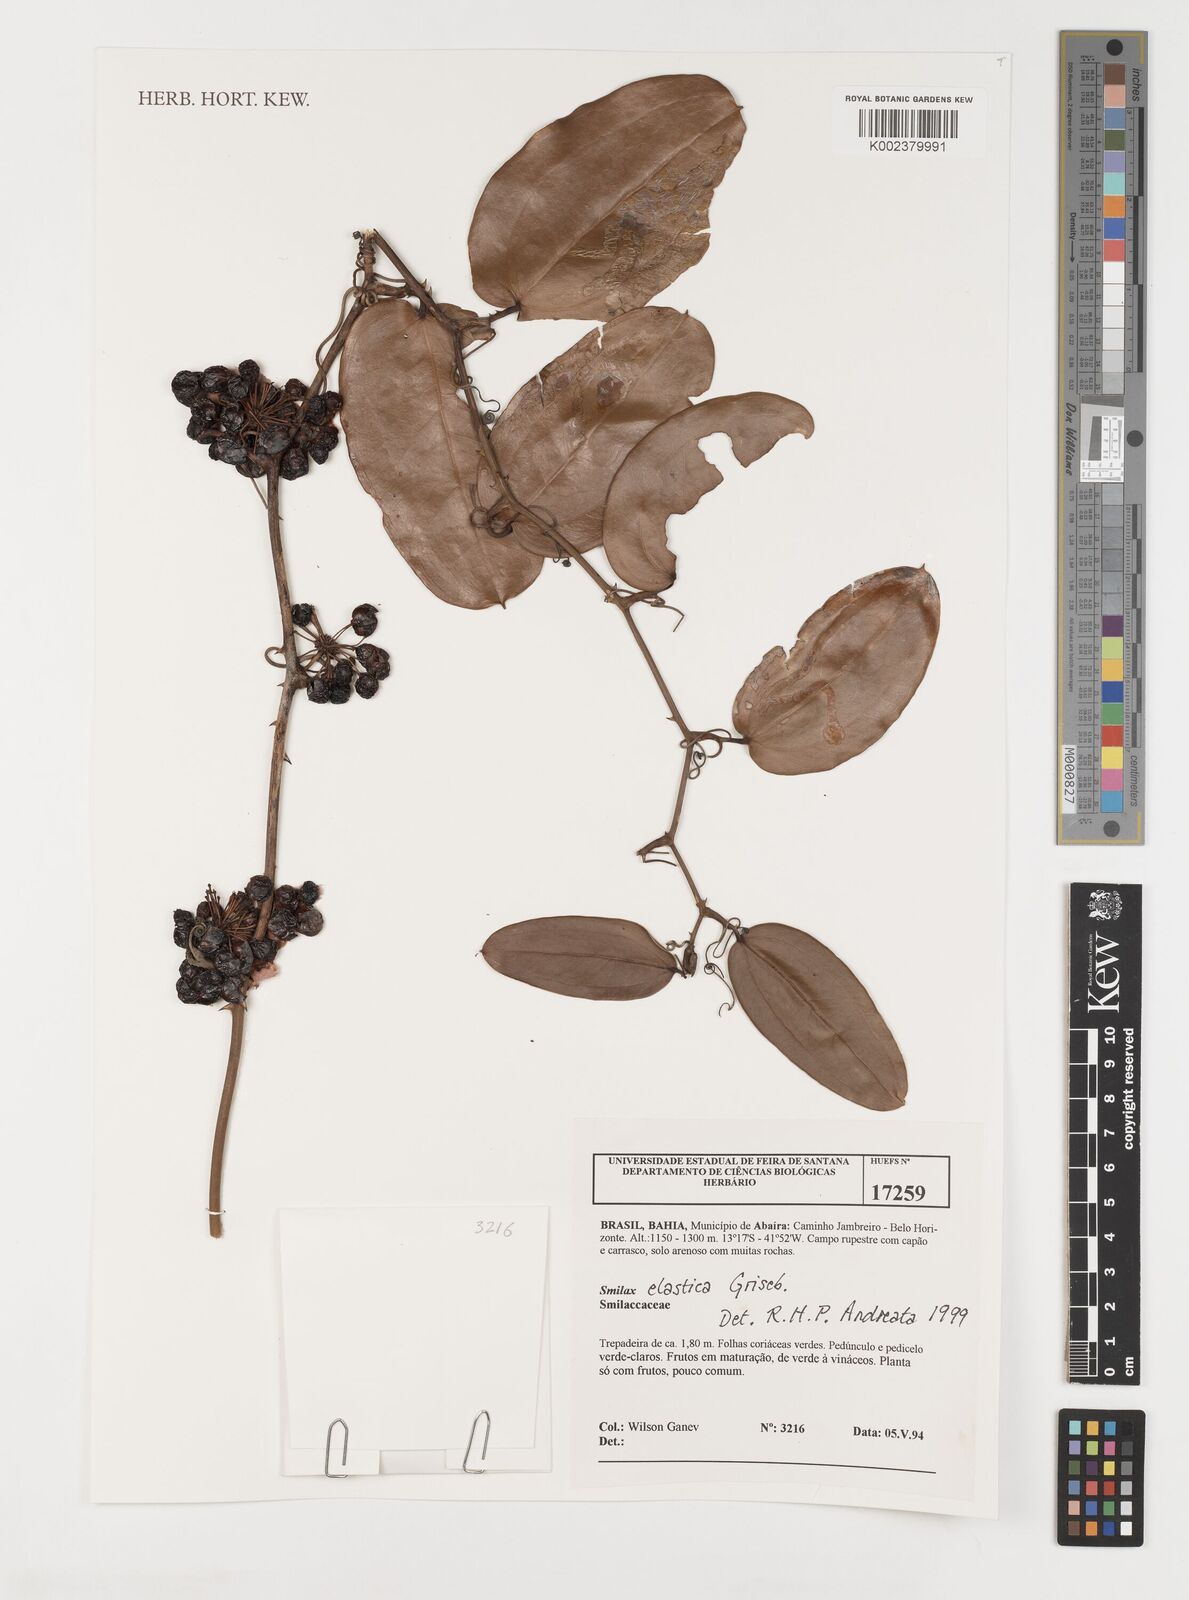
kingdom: Plantae
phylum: Tracheophyta
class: Liliopsida
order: Liliales
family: Smilacaceae
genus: Smilax
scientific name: Smilax elastica
